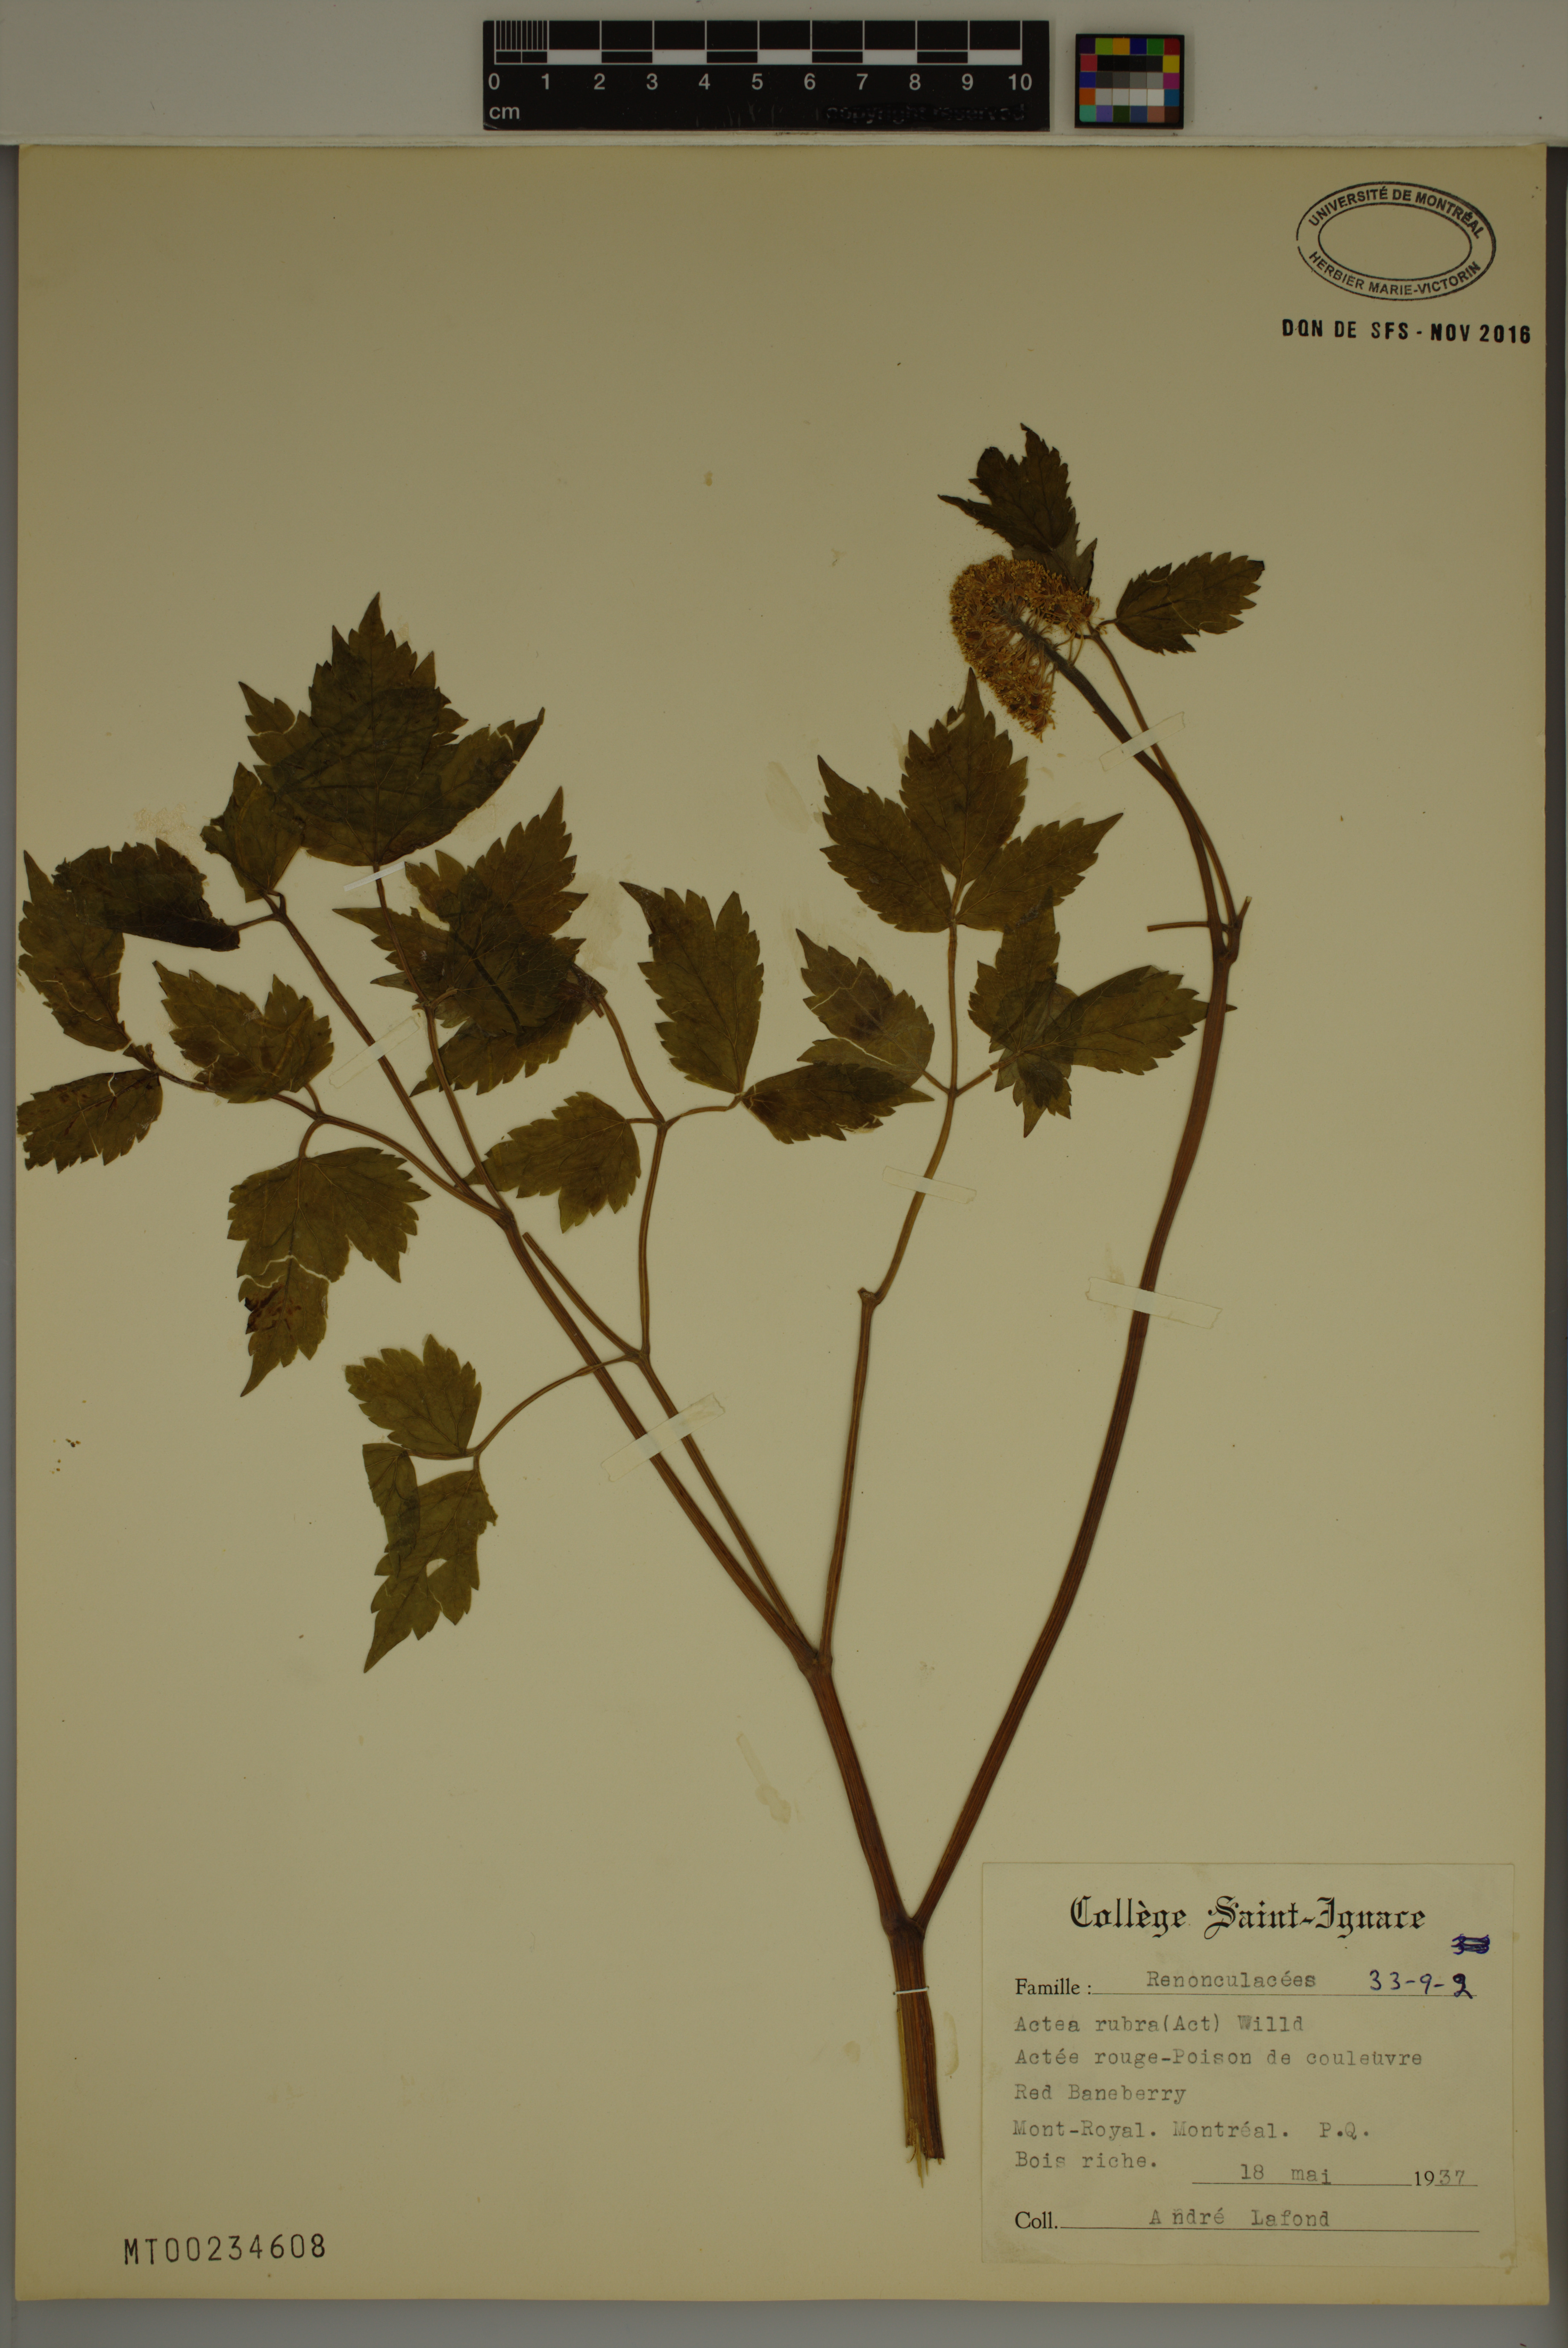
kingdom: Plantae
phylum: Tracheophyta
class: Magnoliopsida
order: Ranunculales
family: Ranunculaceae
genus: Actaea
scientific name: Actaea rubra
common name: Red baneberry
